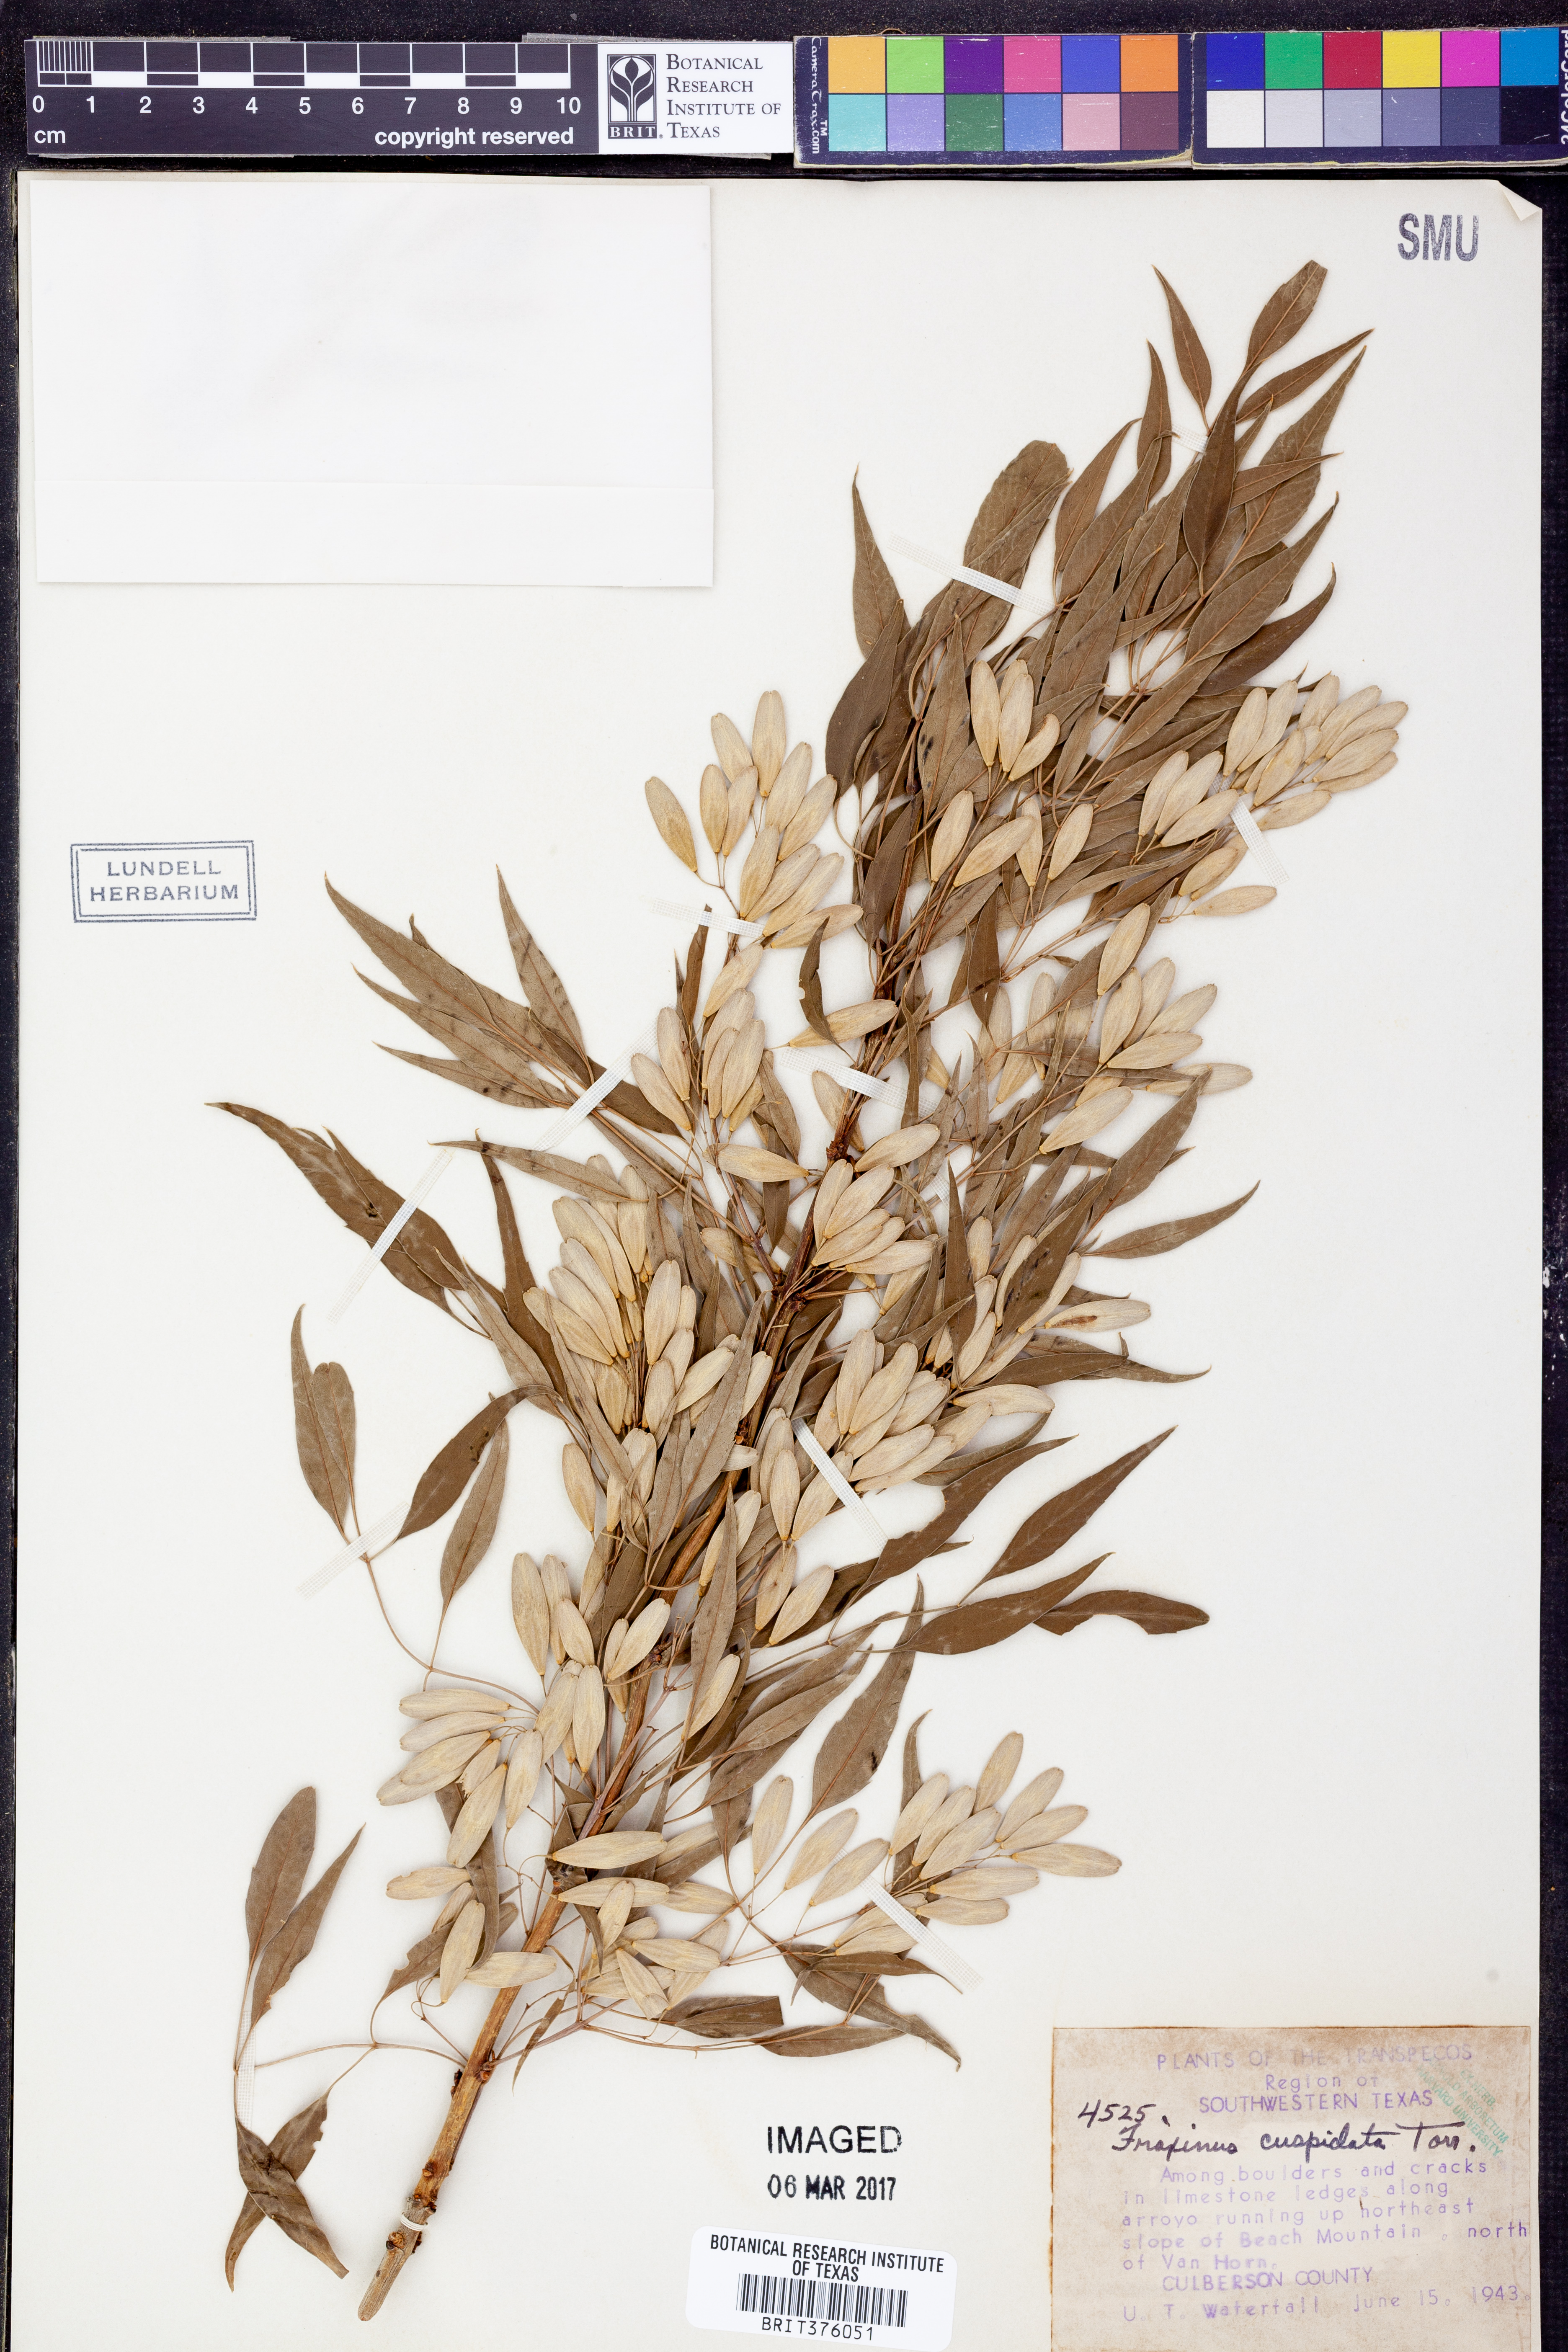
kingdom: Plantae
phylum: Tracheophyta
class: Magnoliopsida
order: Lamiales
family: Oleaceae
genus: Fraxinus
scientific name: Fraxinus cuspidata
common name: Fragrant ash
